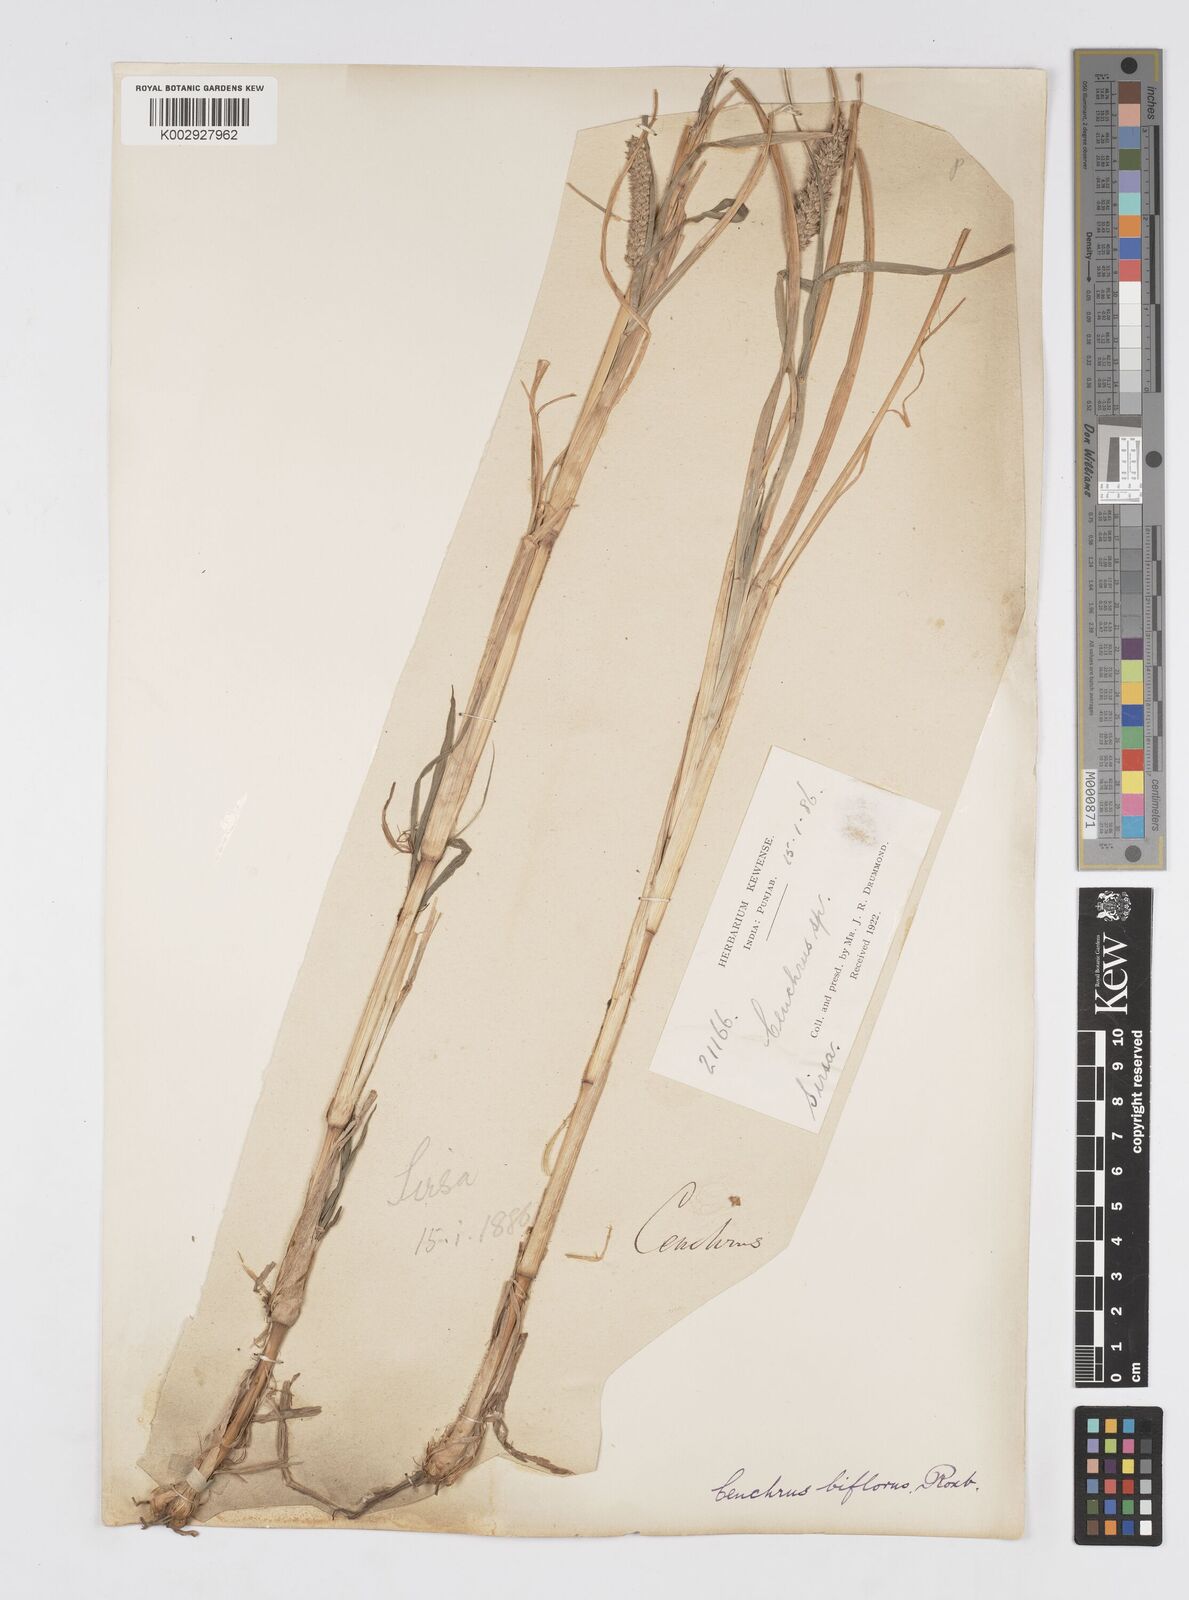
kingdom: Plantae
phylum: Tracheophyta
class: Liliopsida
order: Poales
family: Poaceae
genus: Cenchrus
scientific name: Cenchrus setigerus
